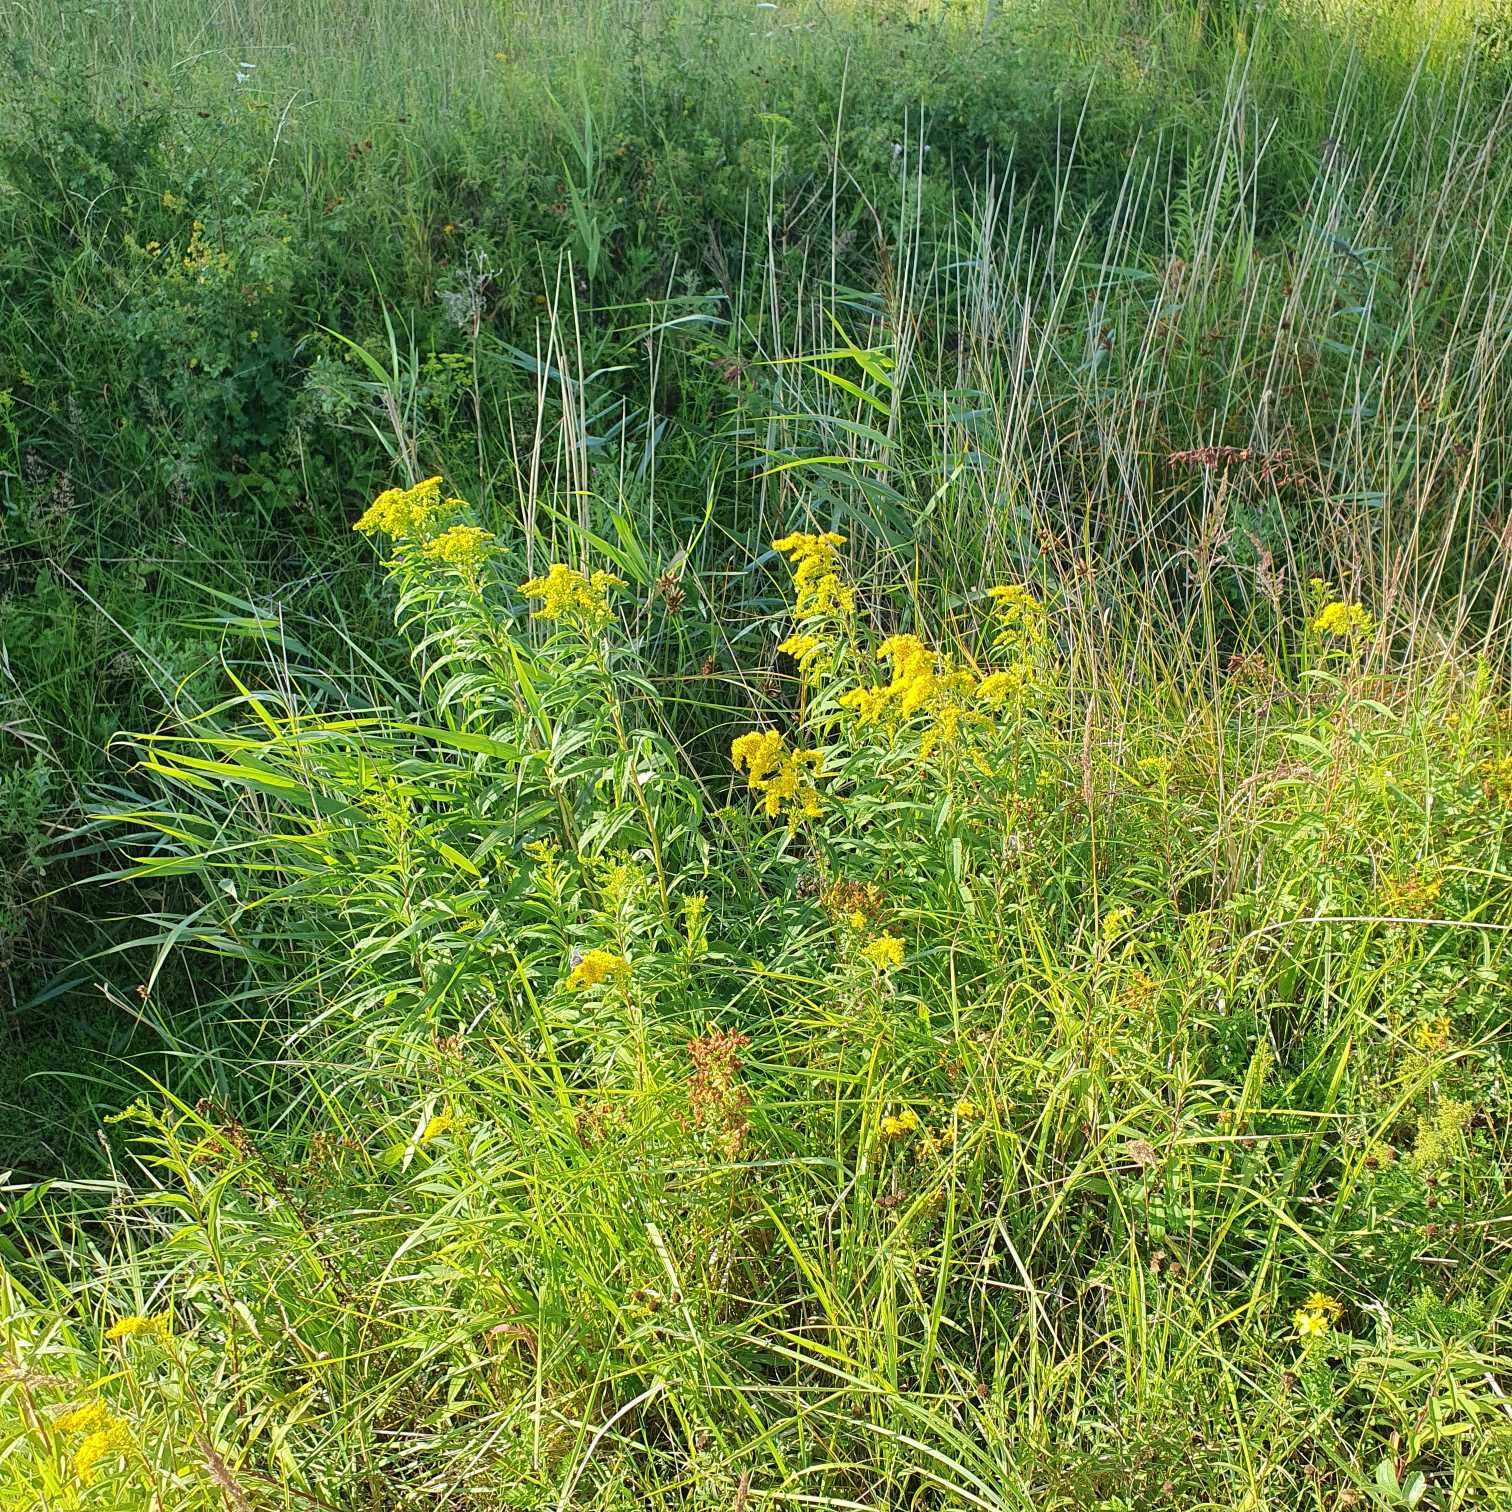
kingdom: Plantae
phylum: Tracheophyta
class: Magnoliopsida
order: Asterales
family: Asteraceae
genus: Solidago
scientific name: Solidago
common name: Gyldenrisslægten
